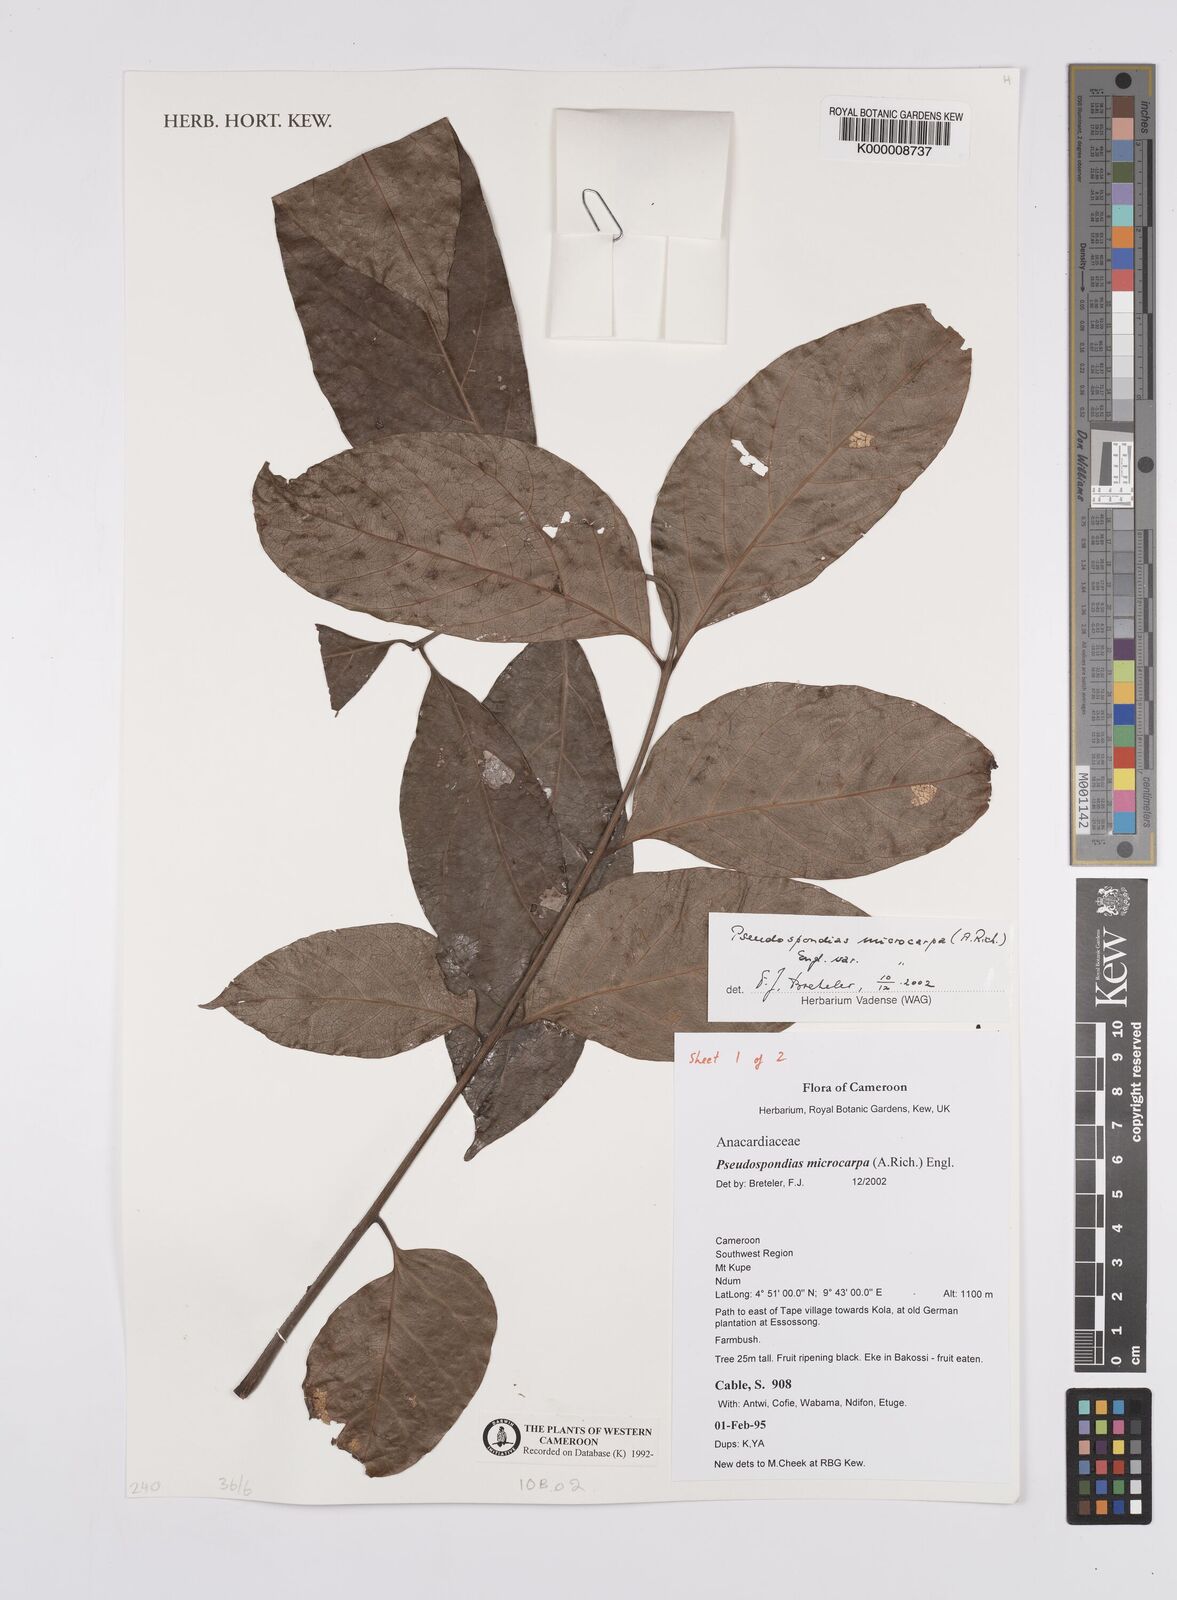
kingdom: Plantae
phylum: Tracheophyta
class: Magnoliopsida
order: Sapindales
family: Anacardiaceae
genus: Pseudospondias
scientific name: Pseudospondias microcarpa
